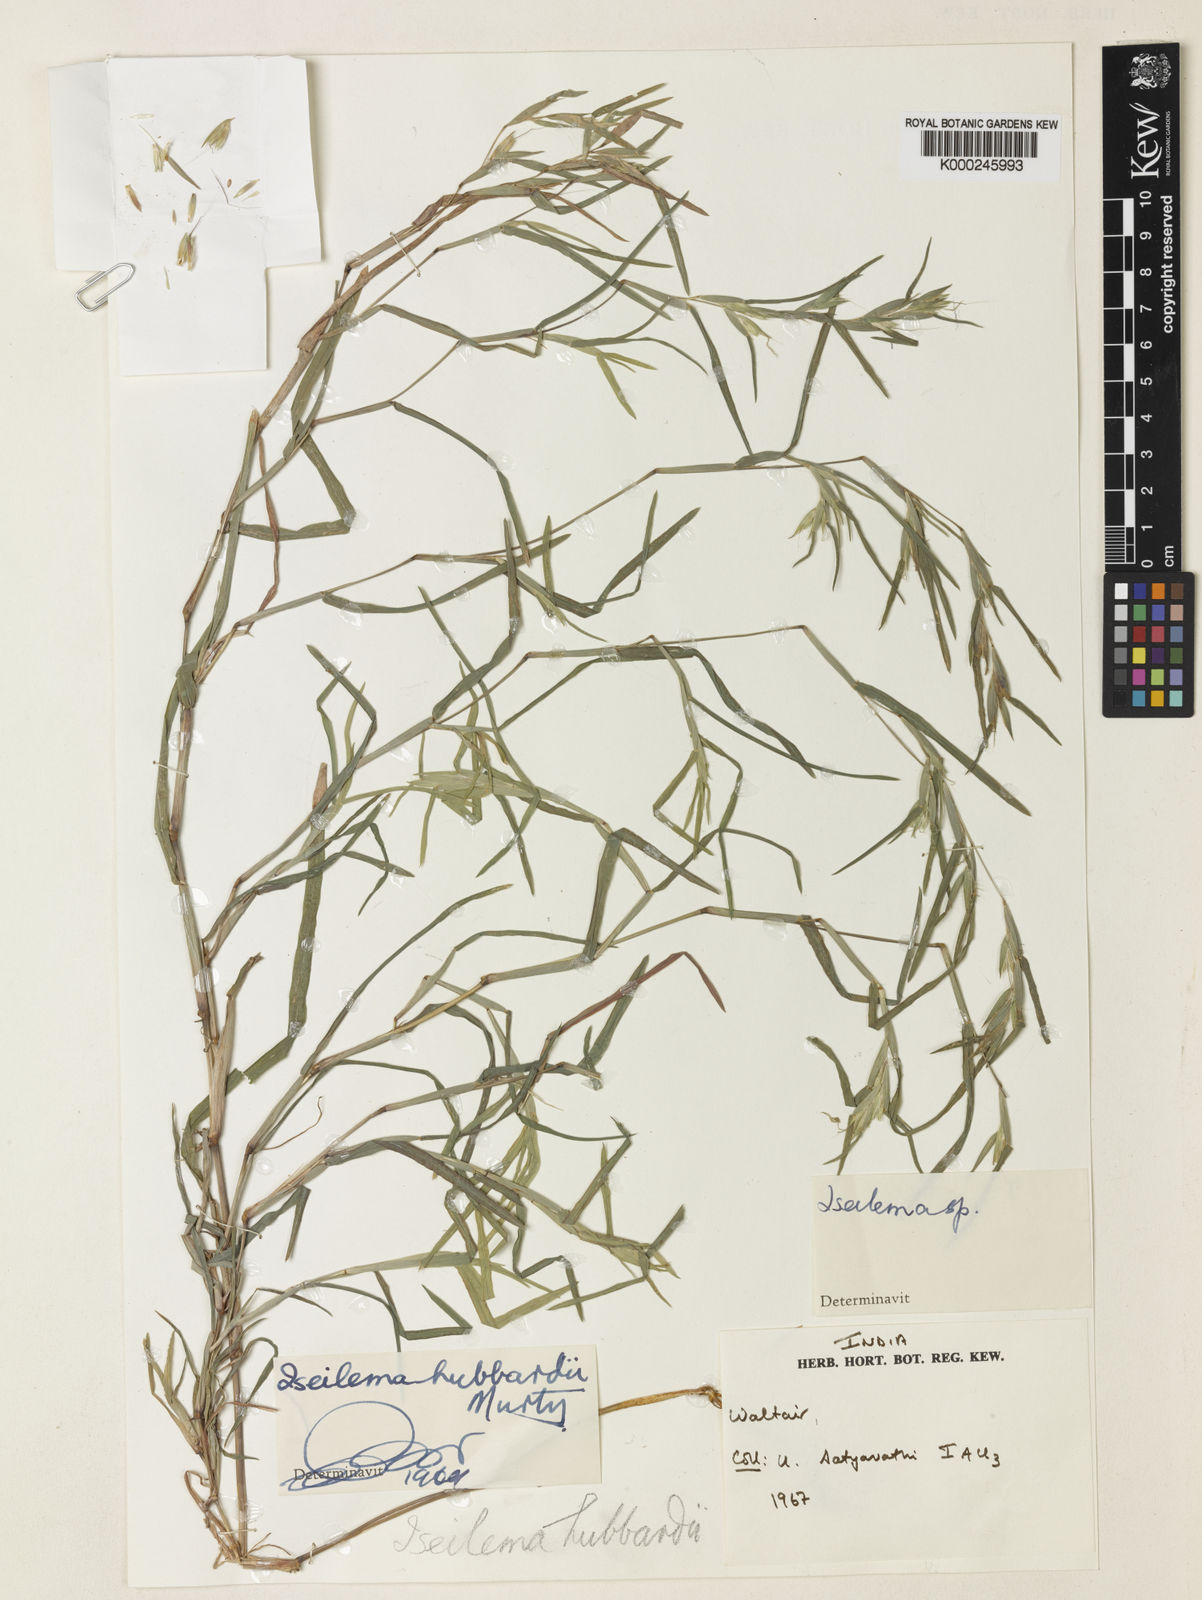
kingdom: Plantae
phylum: Tracheophyta
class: Liliopsida
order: Poales
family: Poaceae
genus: Iseilema
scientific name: Iseilema
